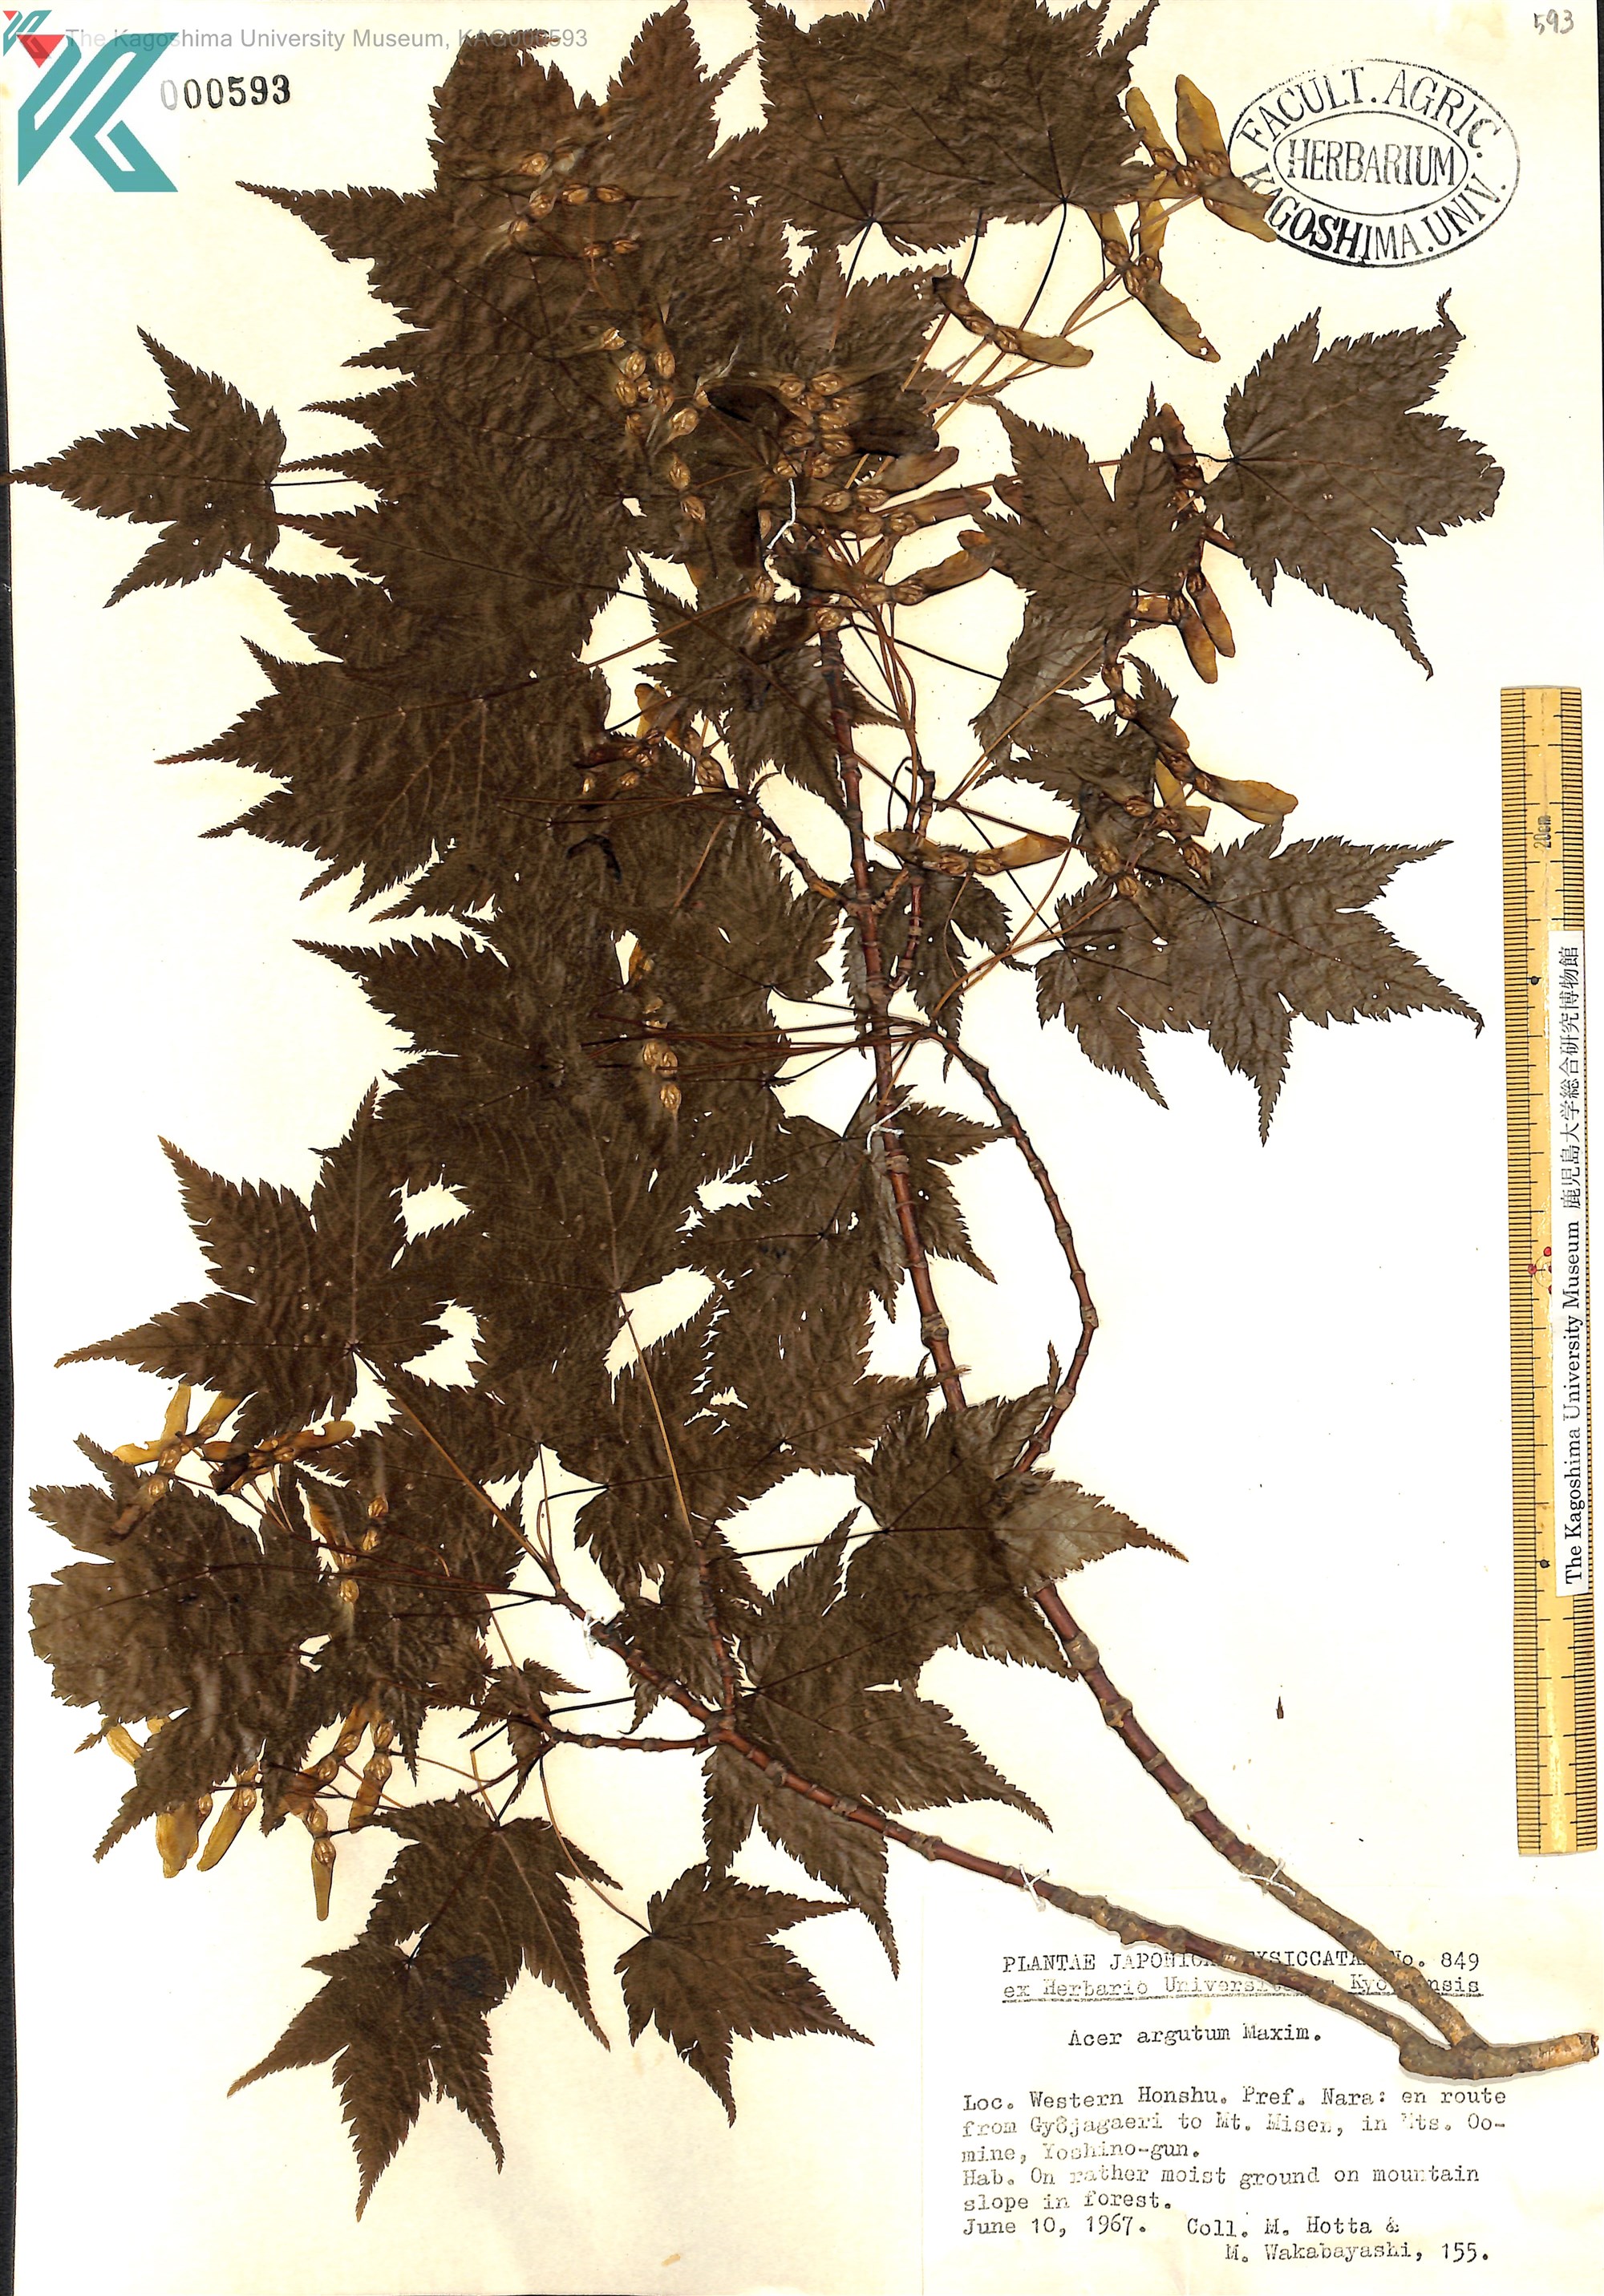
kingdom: Plantae
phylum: Tracheophyta
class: Magnoliopsida
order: Sapindales
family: Sapindaceae
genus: Acer
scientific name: Acer argutum
